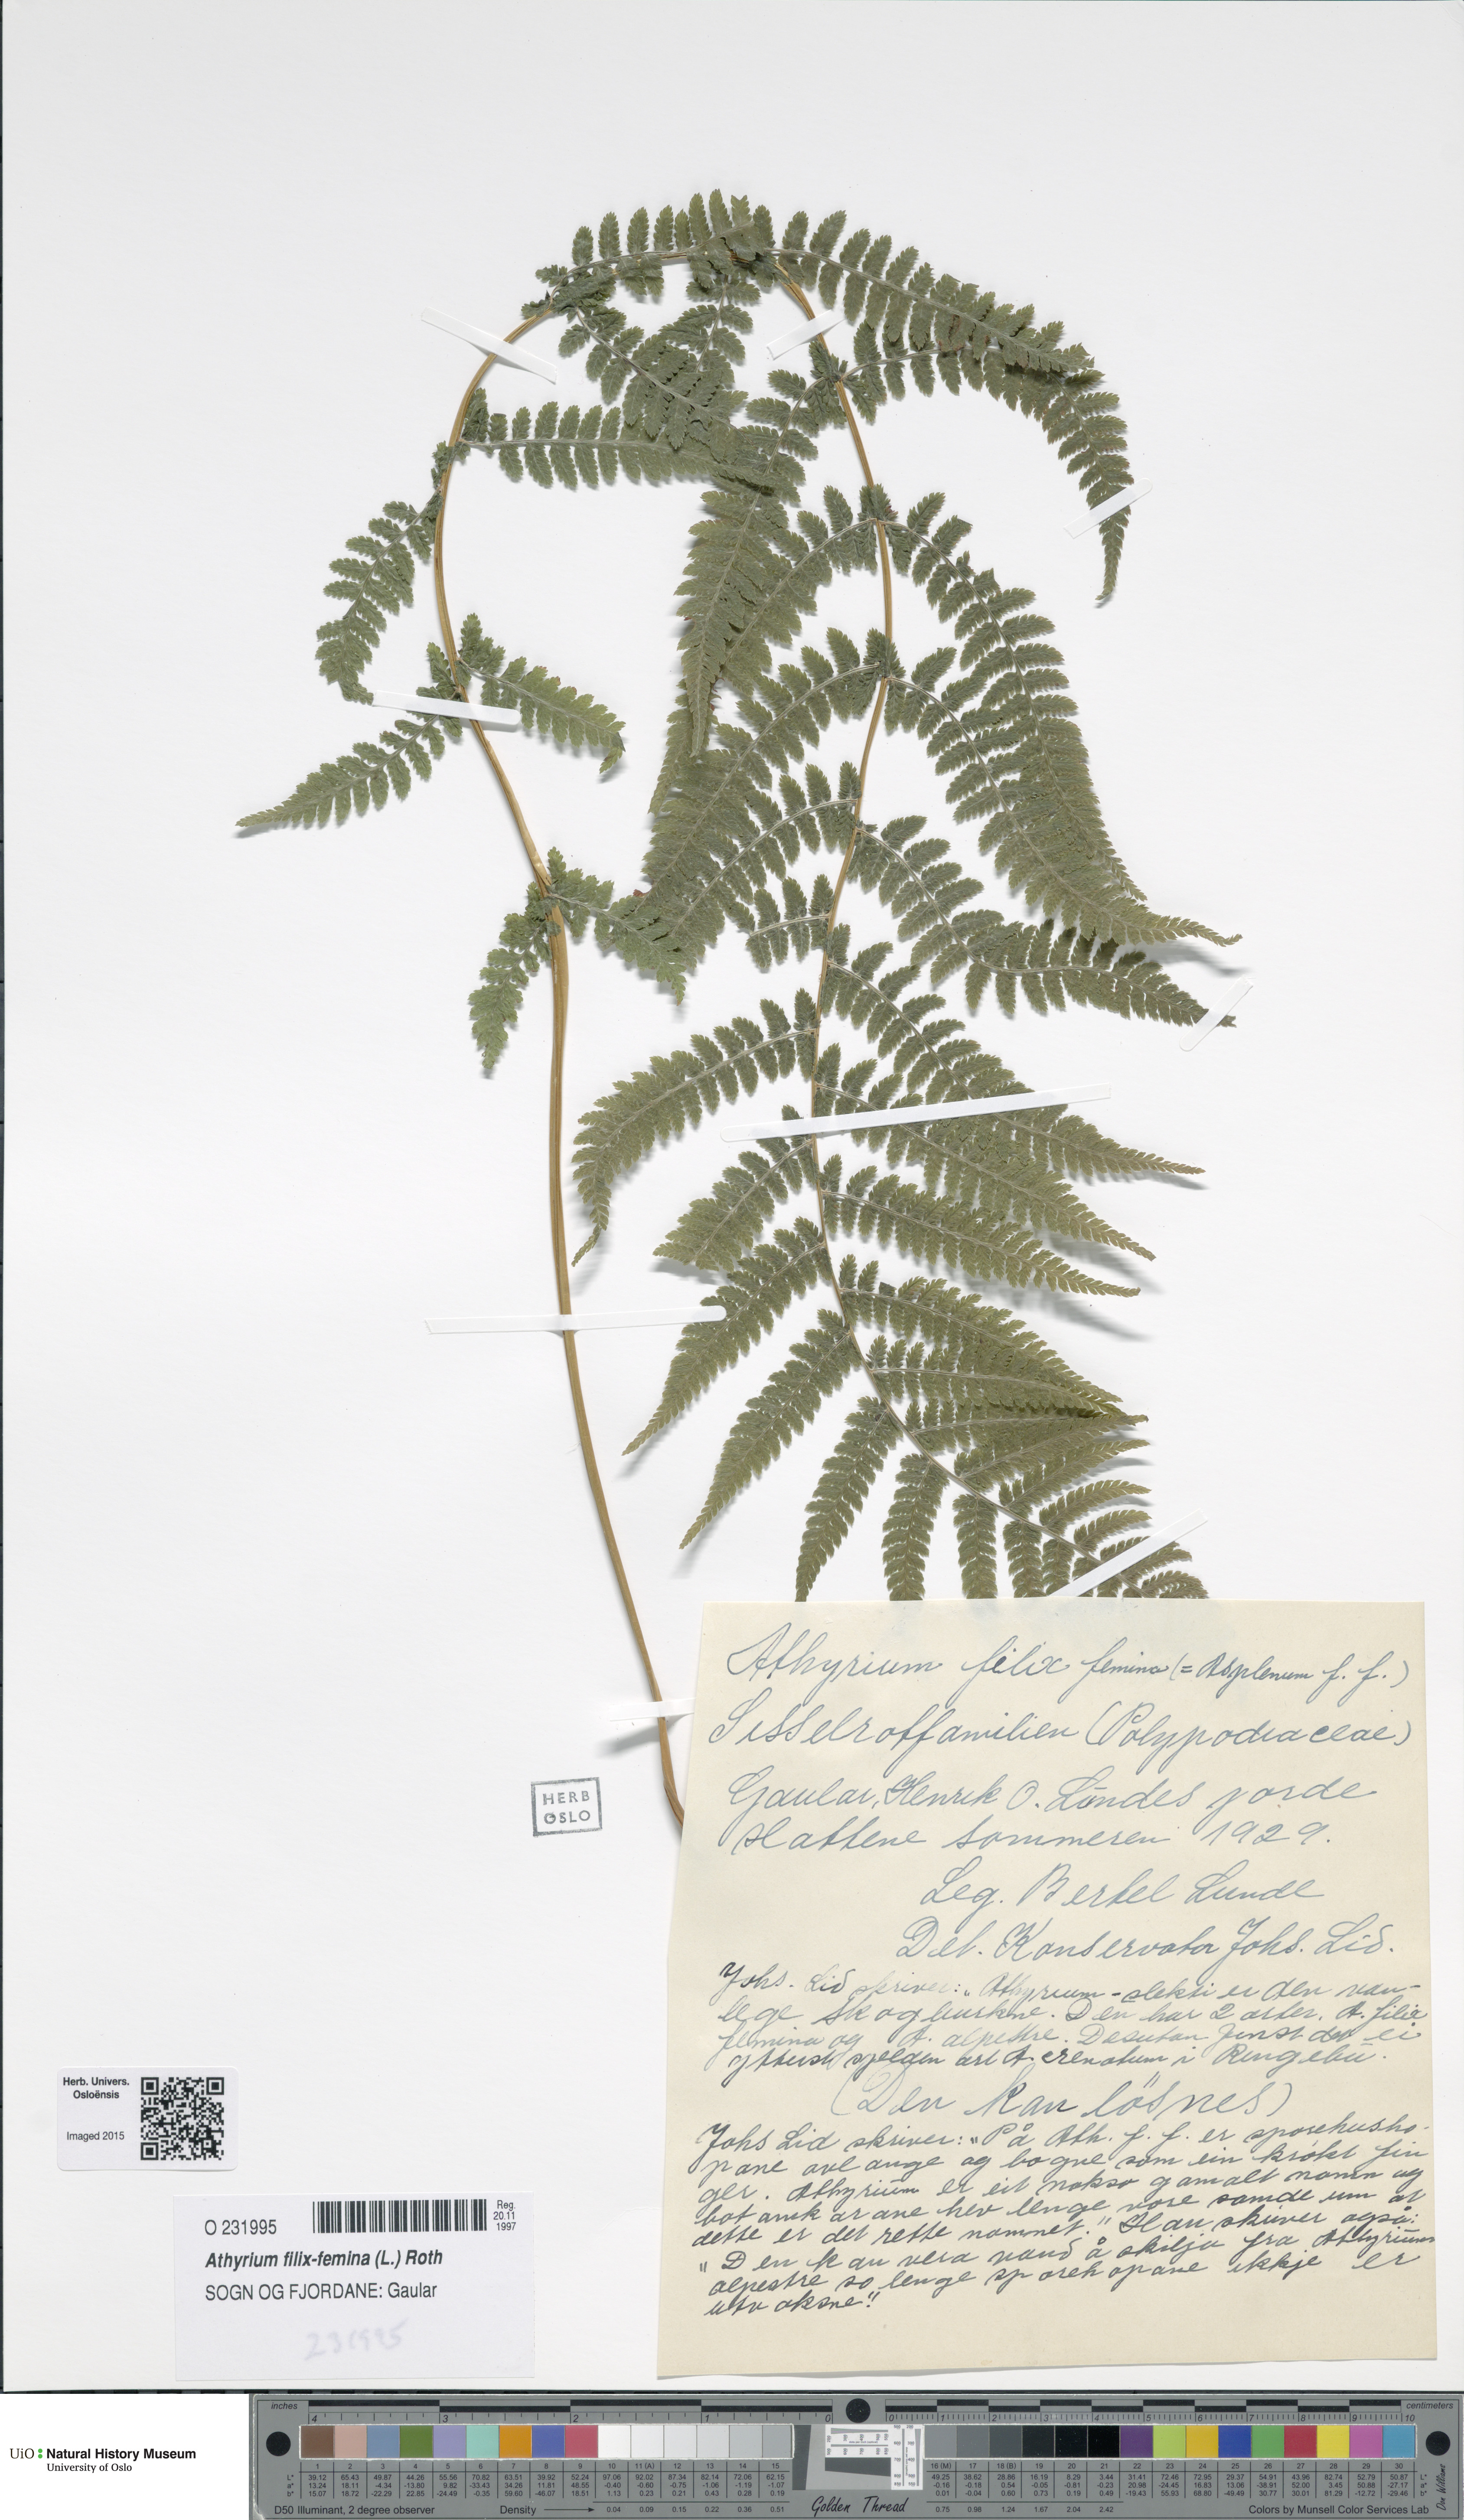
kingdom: Plantae
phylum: Tracheophyta
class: Polypodiopsida
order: Polypodiales
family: Athyriaceae
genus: Athyrium
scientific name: Athyrium filix-femina
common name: Lady fern
